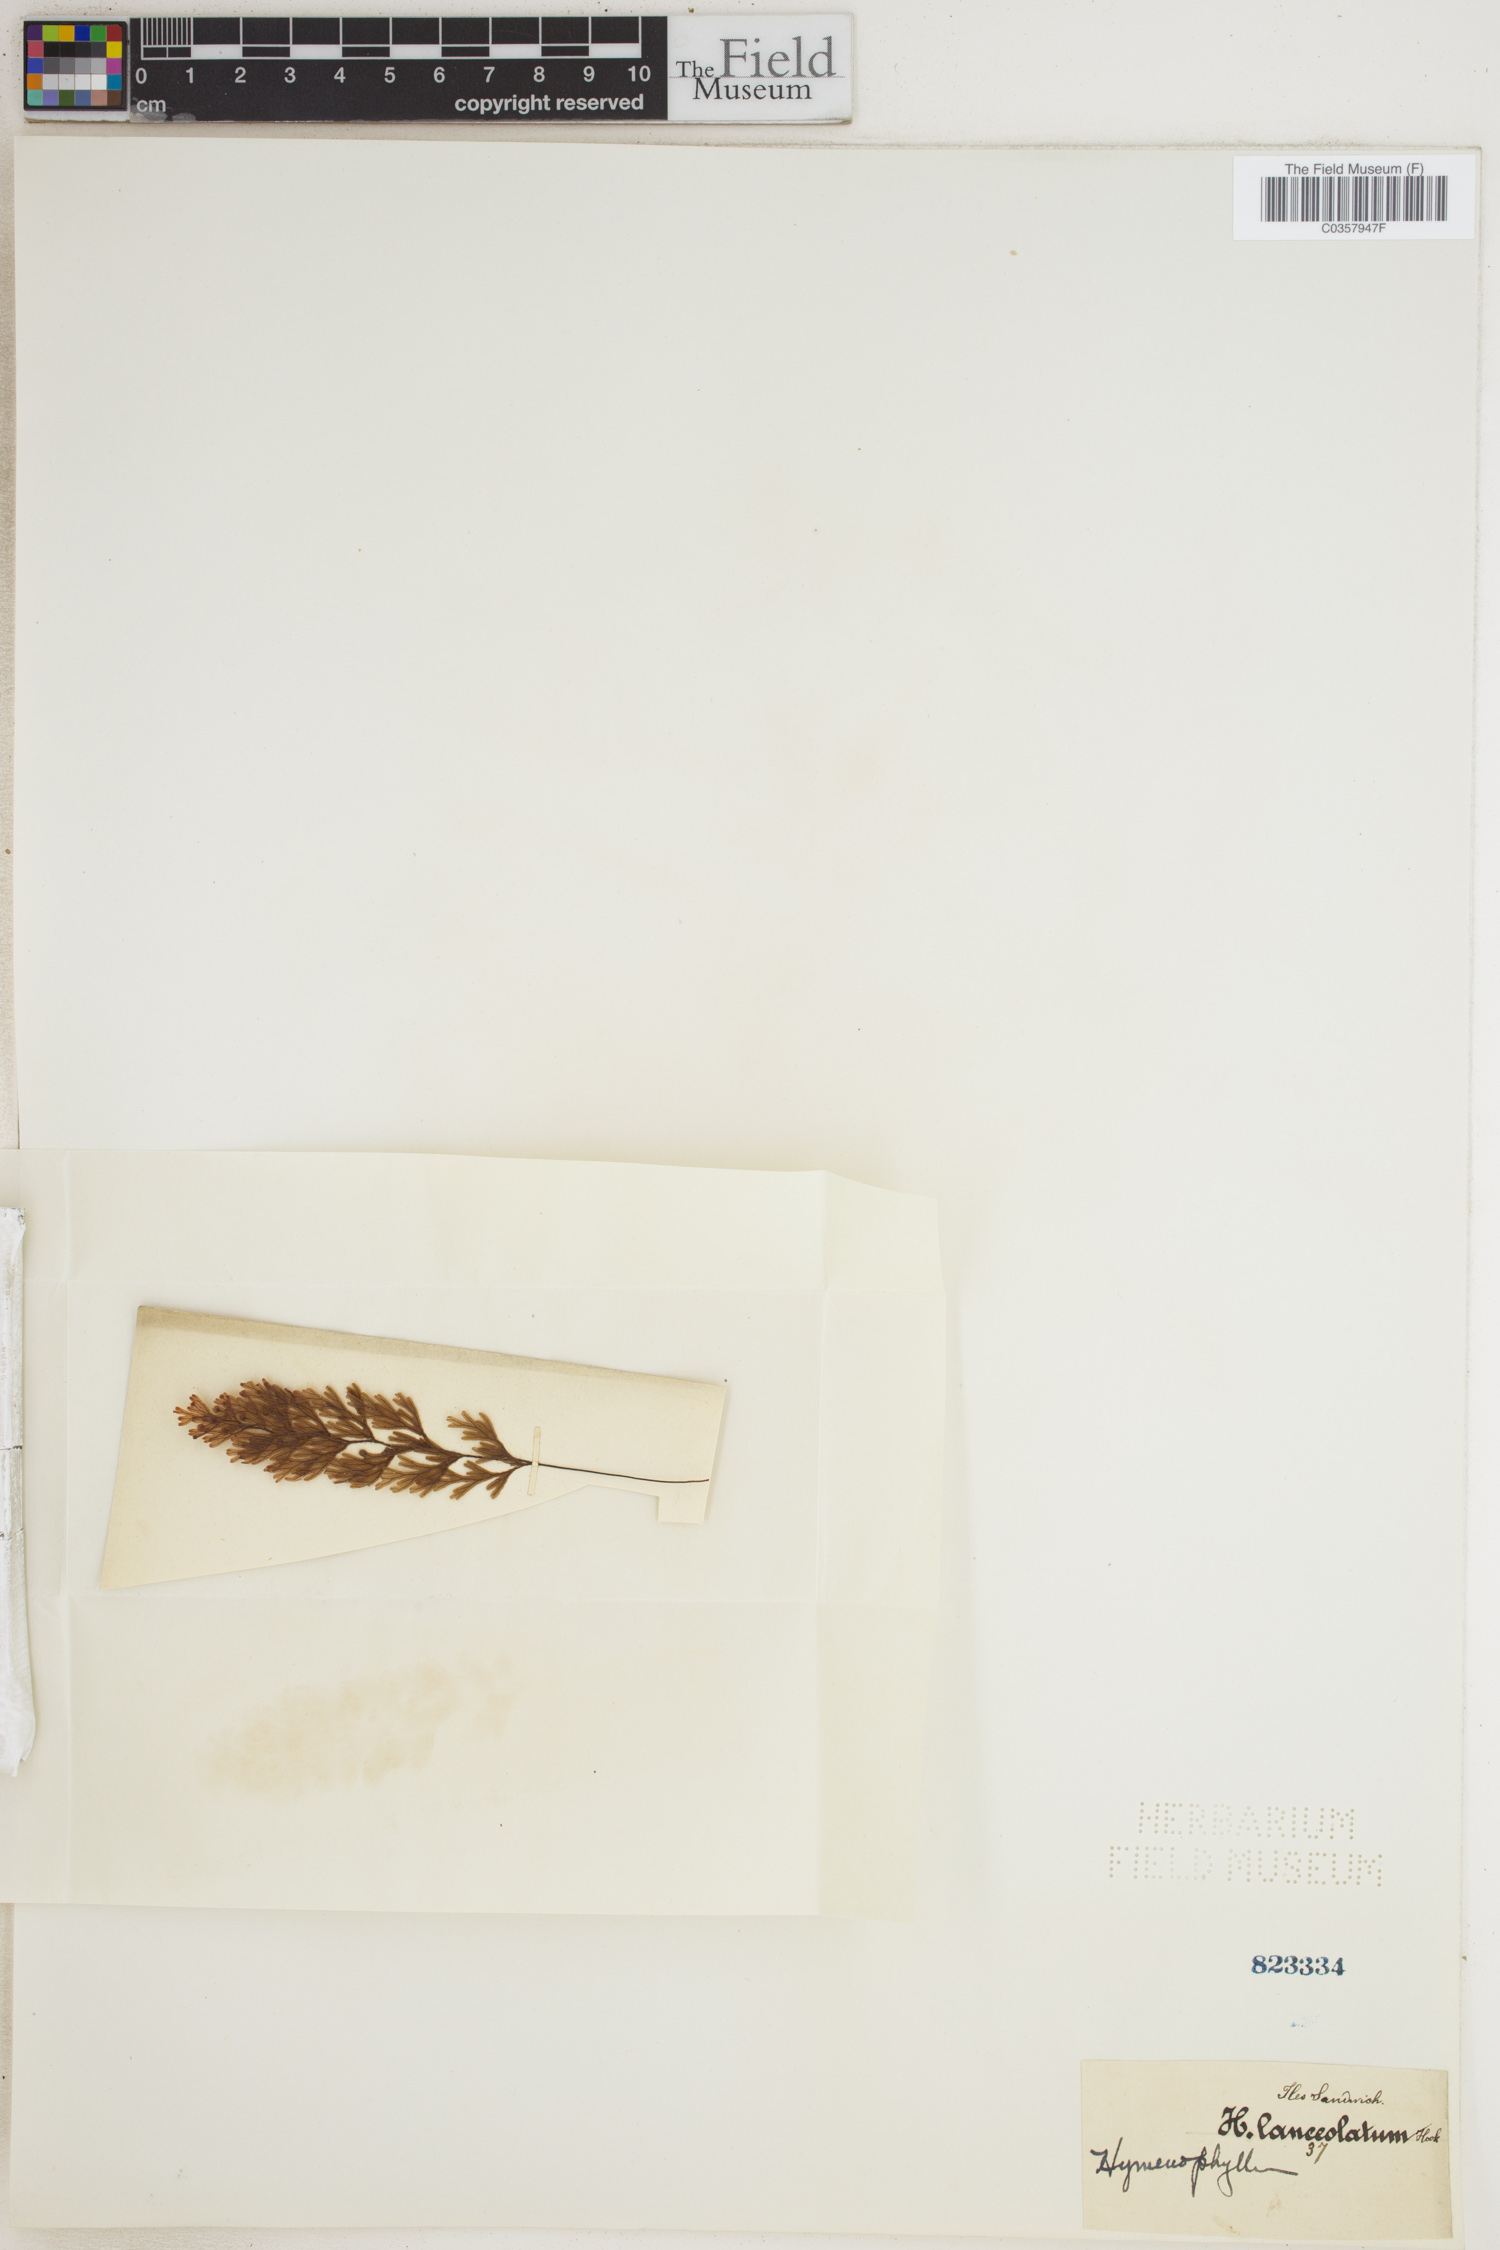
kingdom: Plantae
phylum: Tracheophyta
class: Polypodiopsida
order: Hymenophyllales
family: Hymenophyllaceae
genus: Hymenophyllum
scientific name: Hymenophyllum lanceolatum
